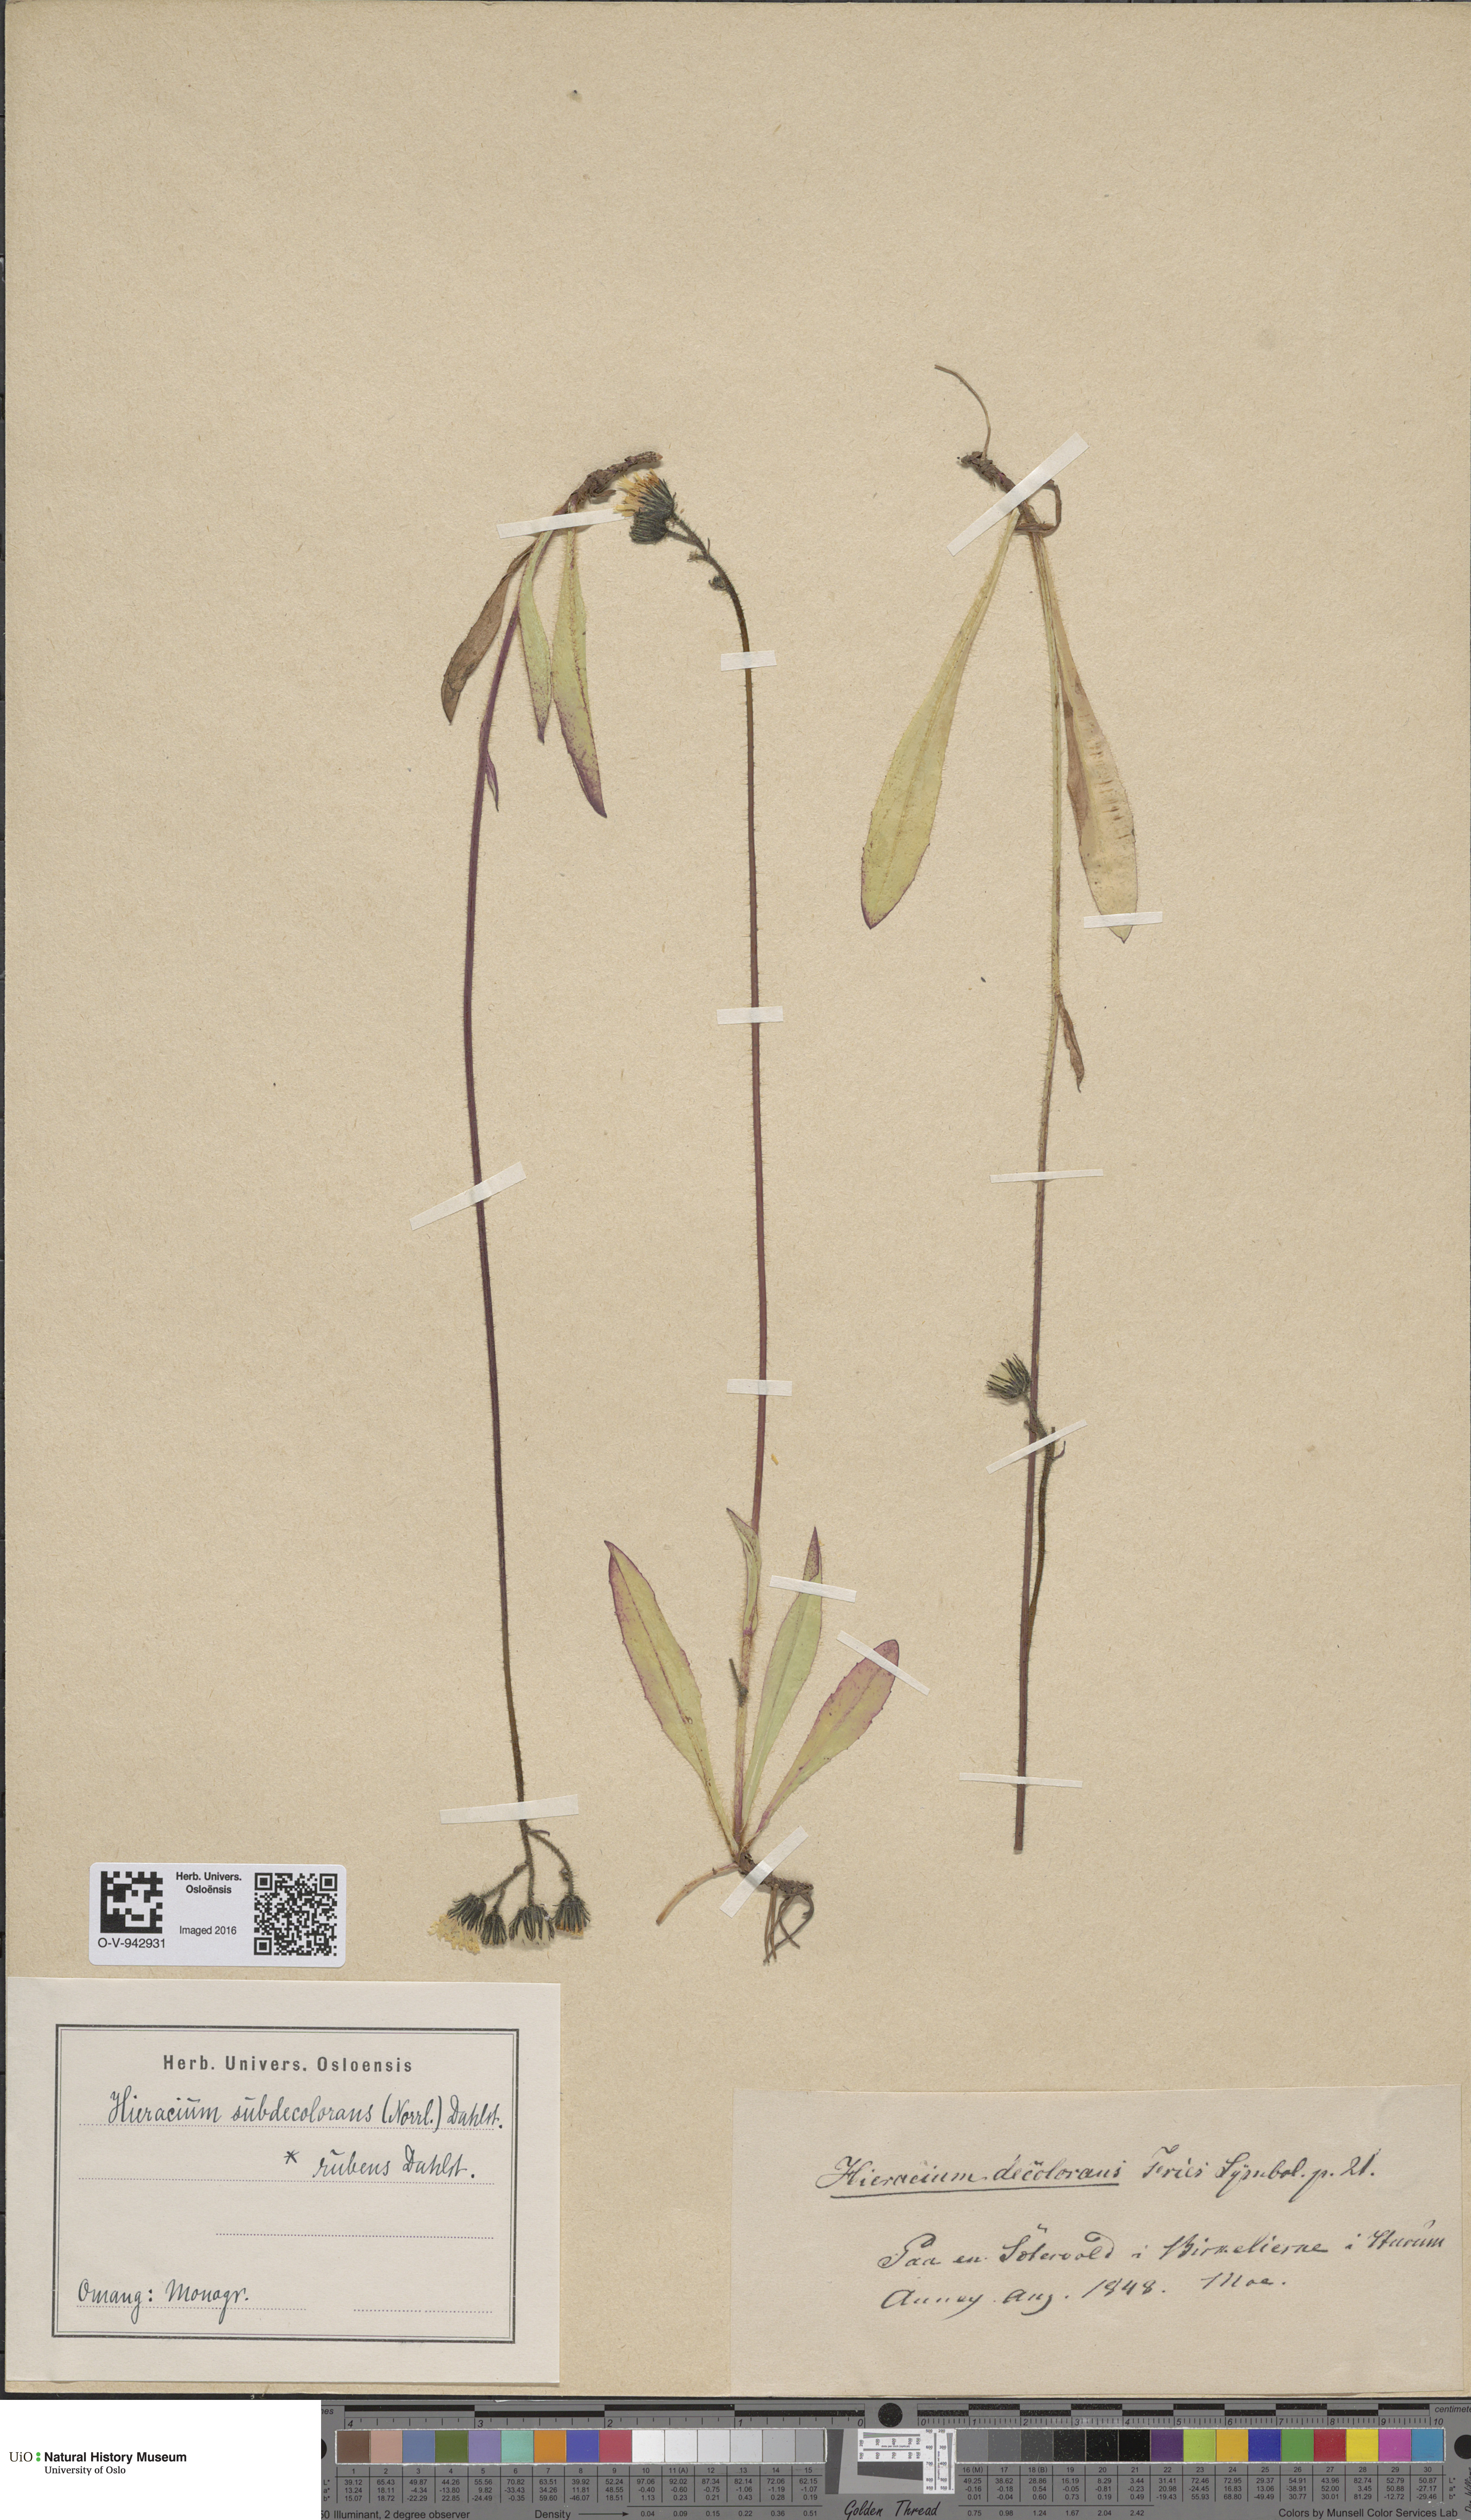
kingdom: Plantae
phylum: Tracheophyta
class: Magnoliopsida
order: Asterales
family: Asteraceae
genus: Pilosella
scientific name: Pilosella subdecolorans
